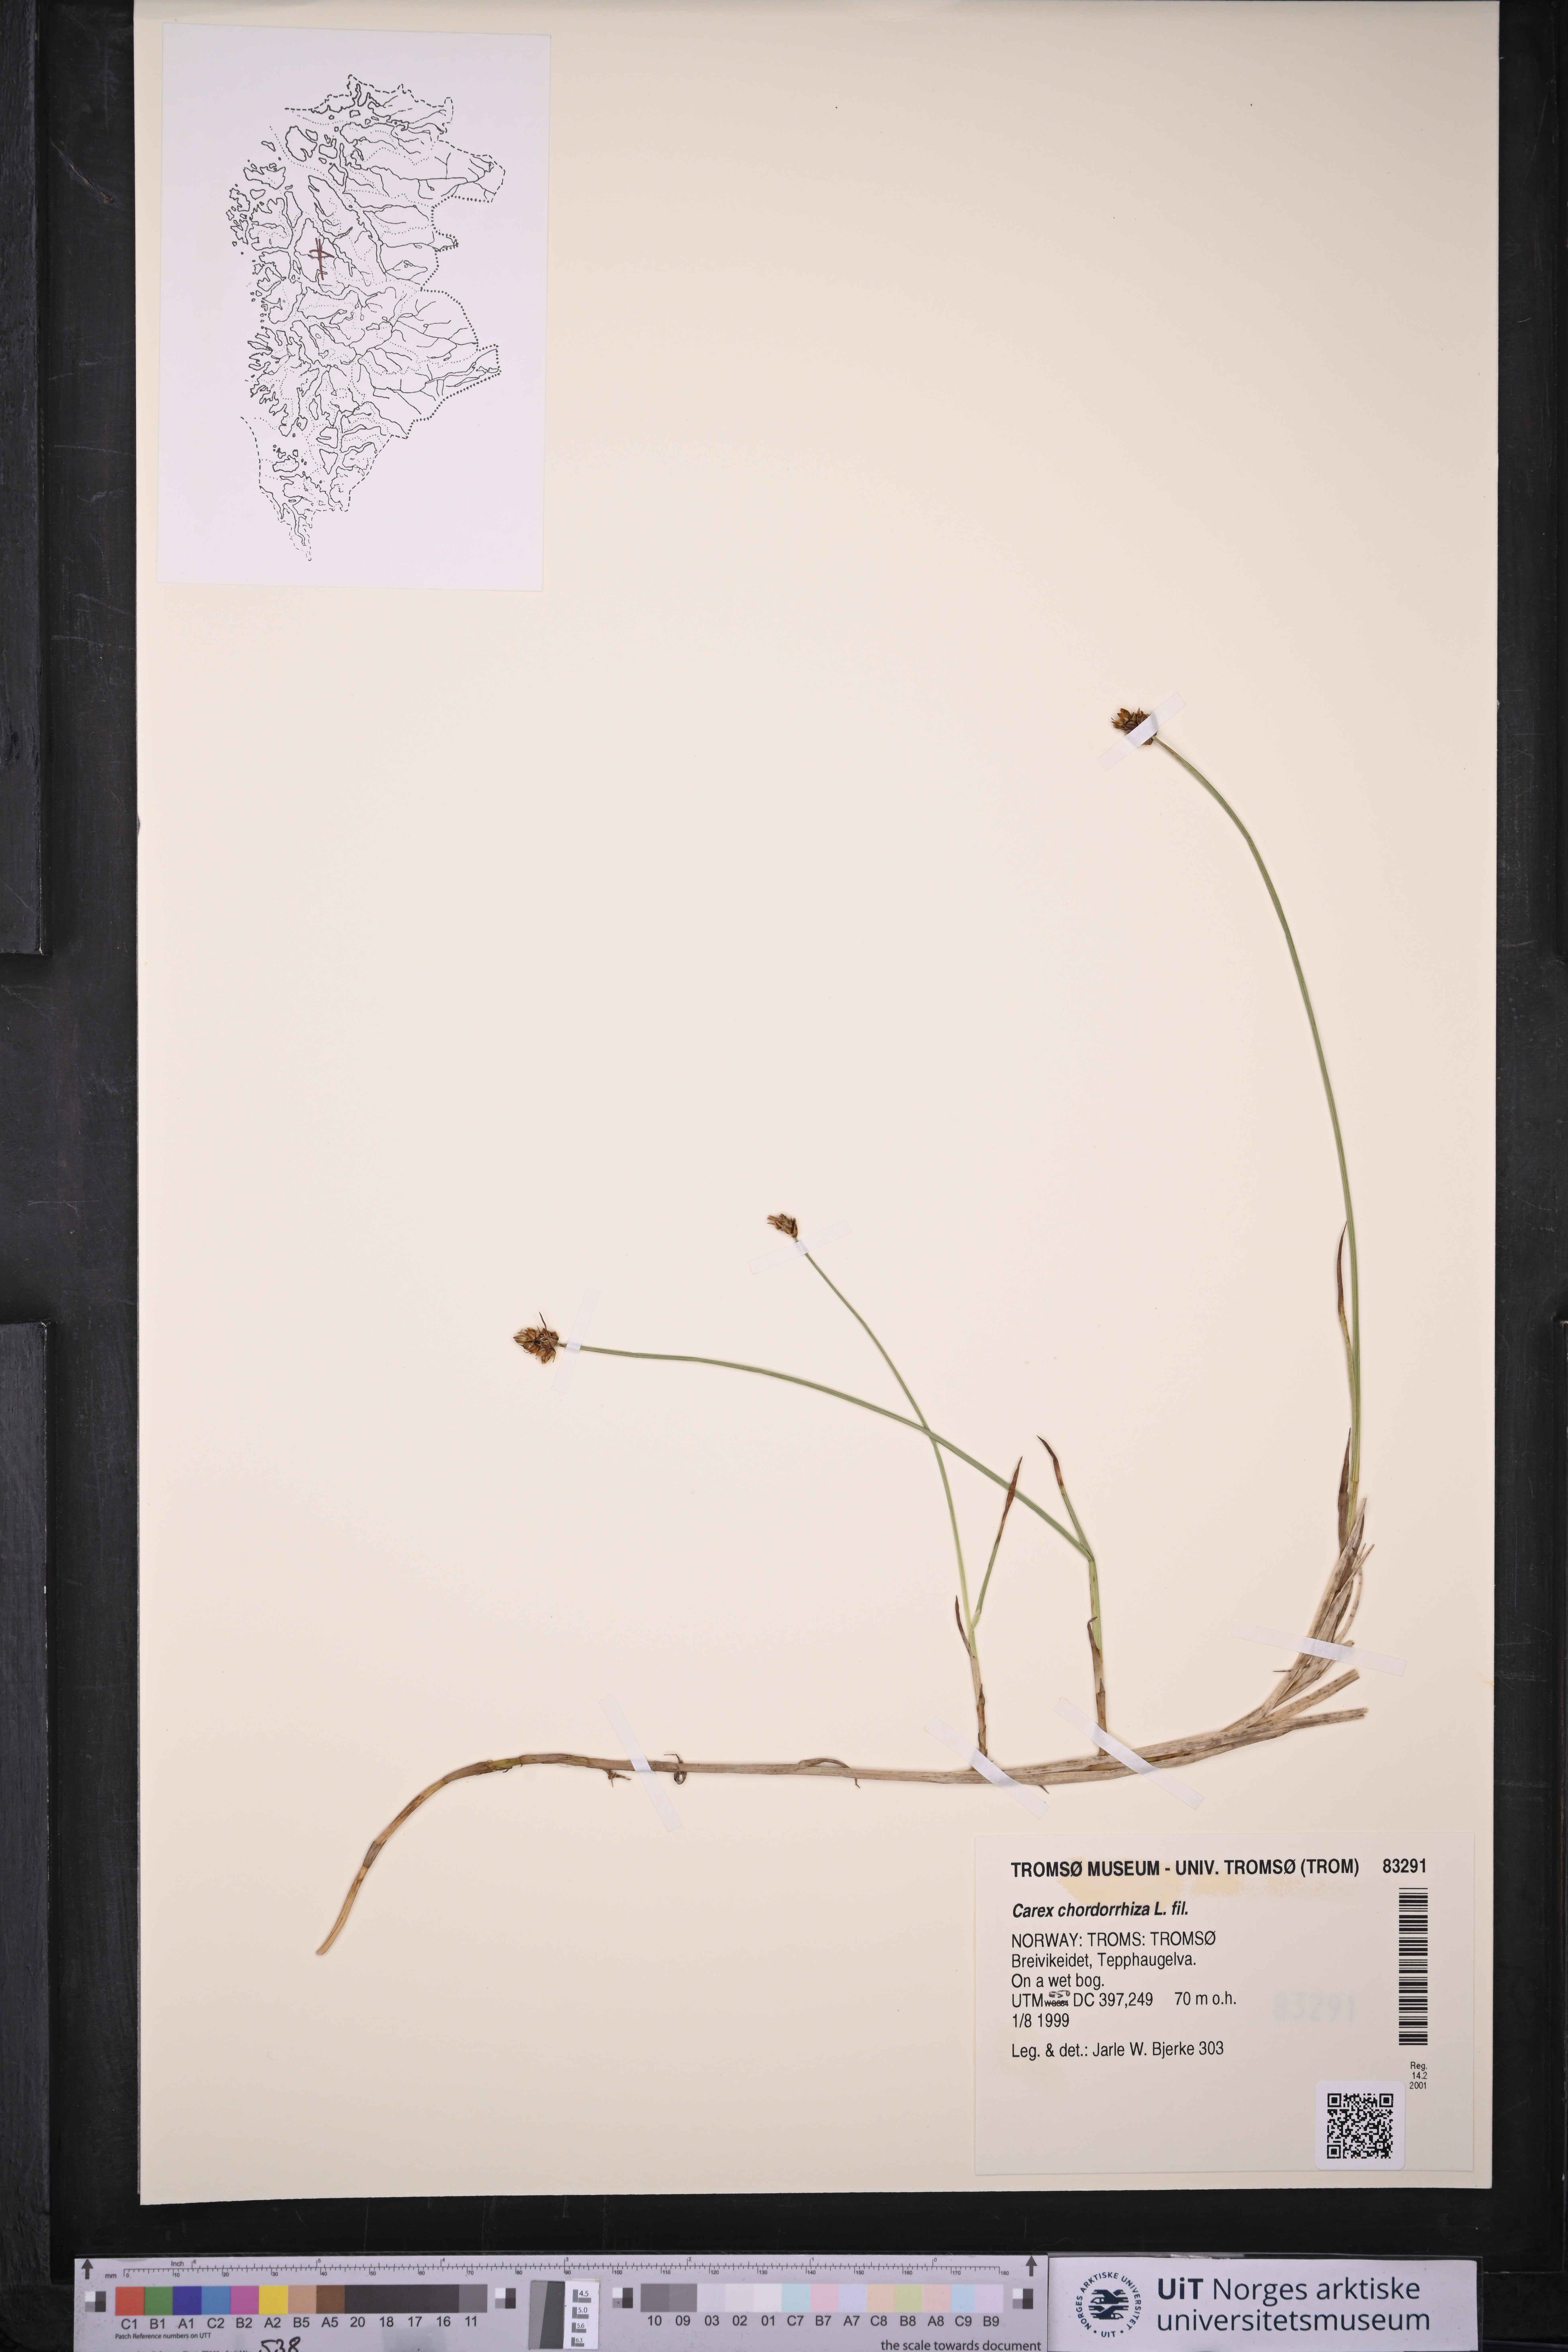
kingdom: Plantae
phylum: Tracheophyta
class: Liliopsida
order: Poales
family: Cyperaceae
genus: Carex
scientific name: Carex chordorrhiza
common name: String sedge
